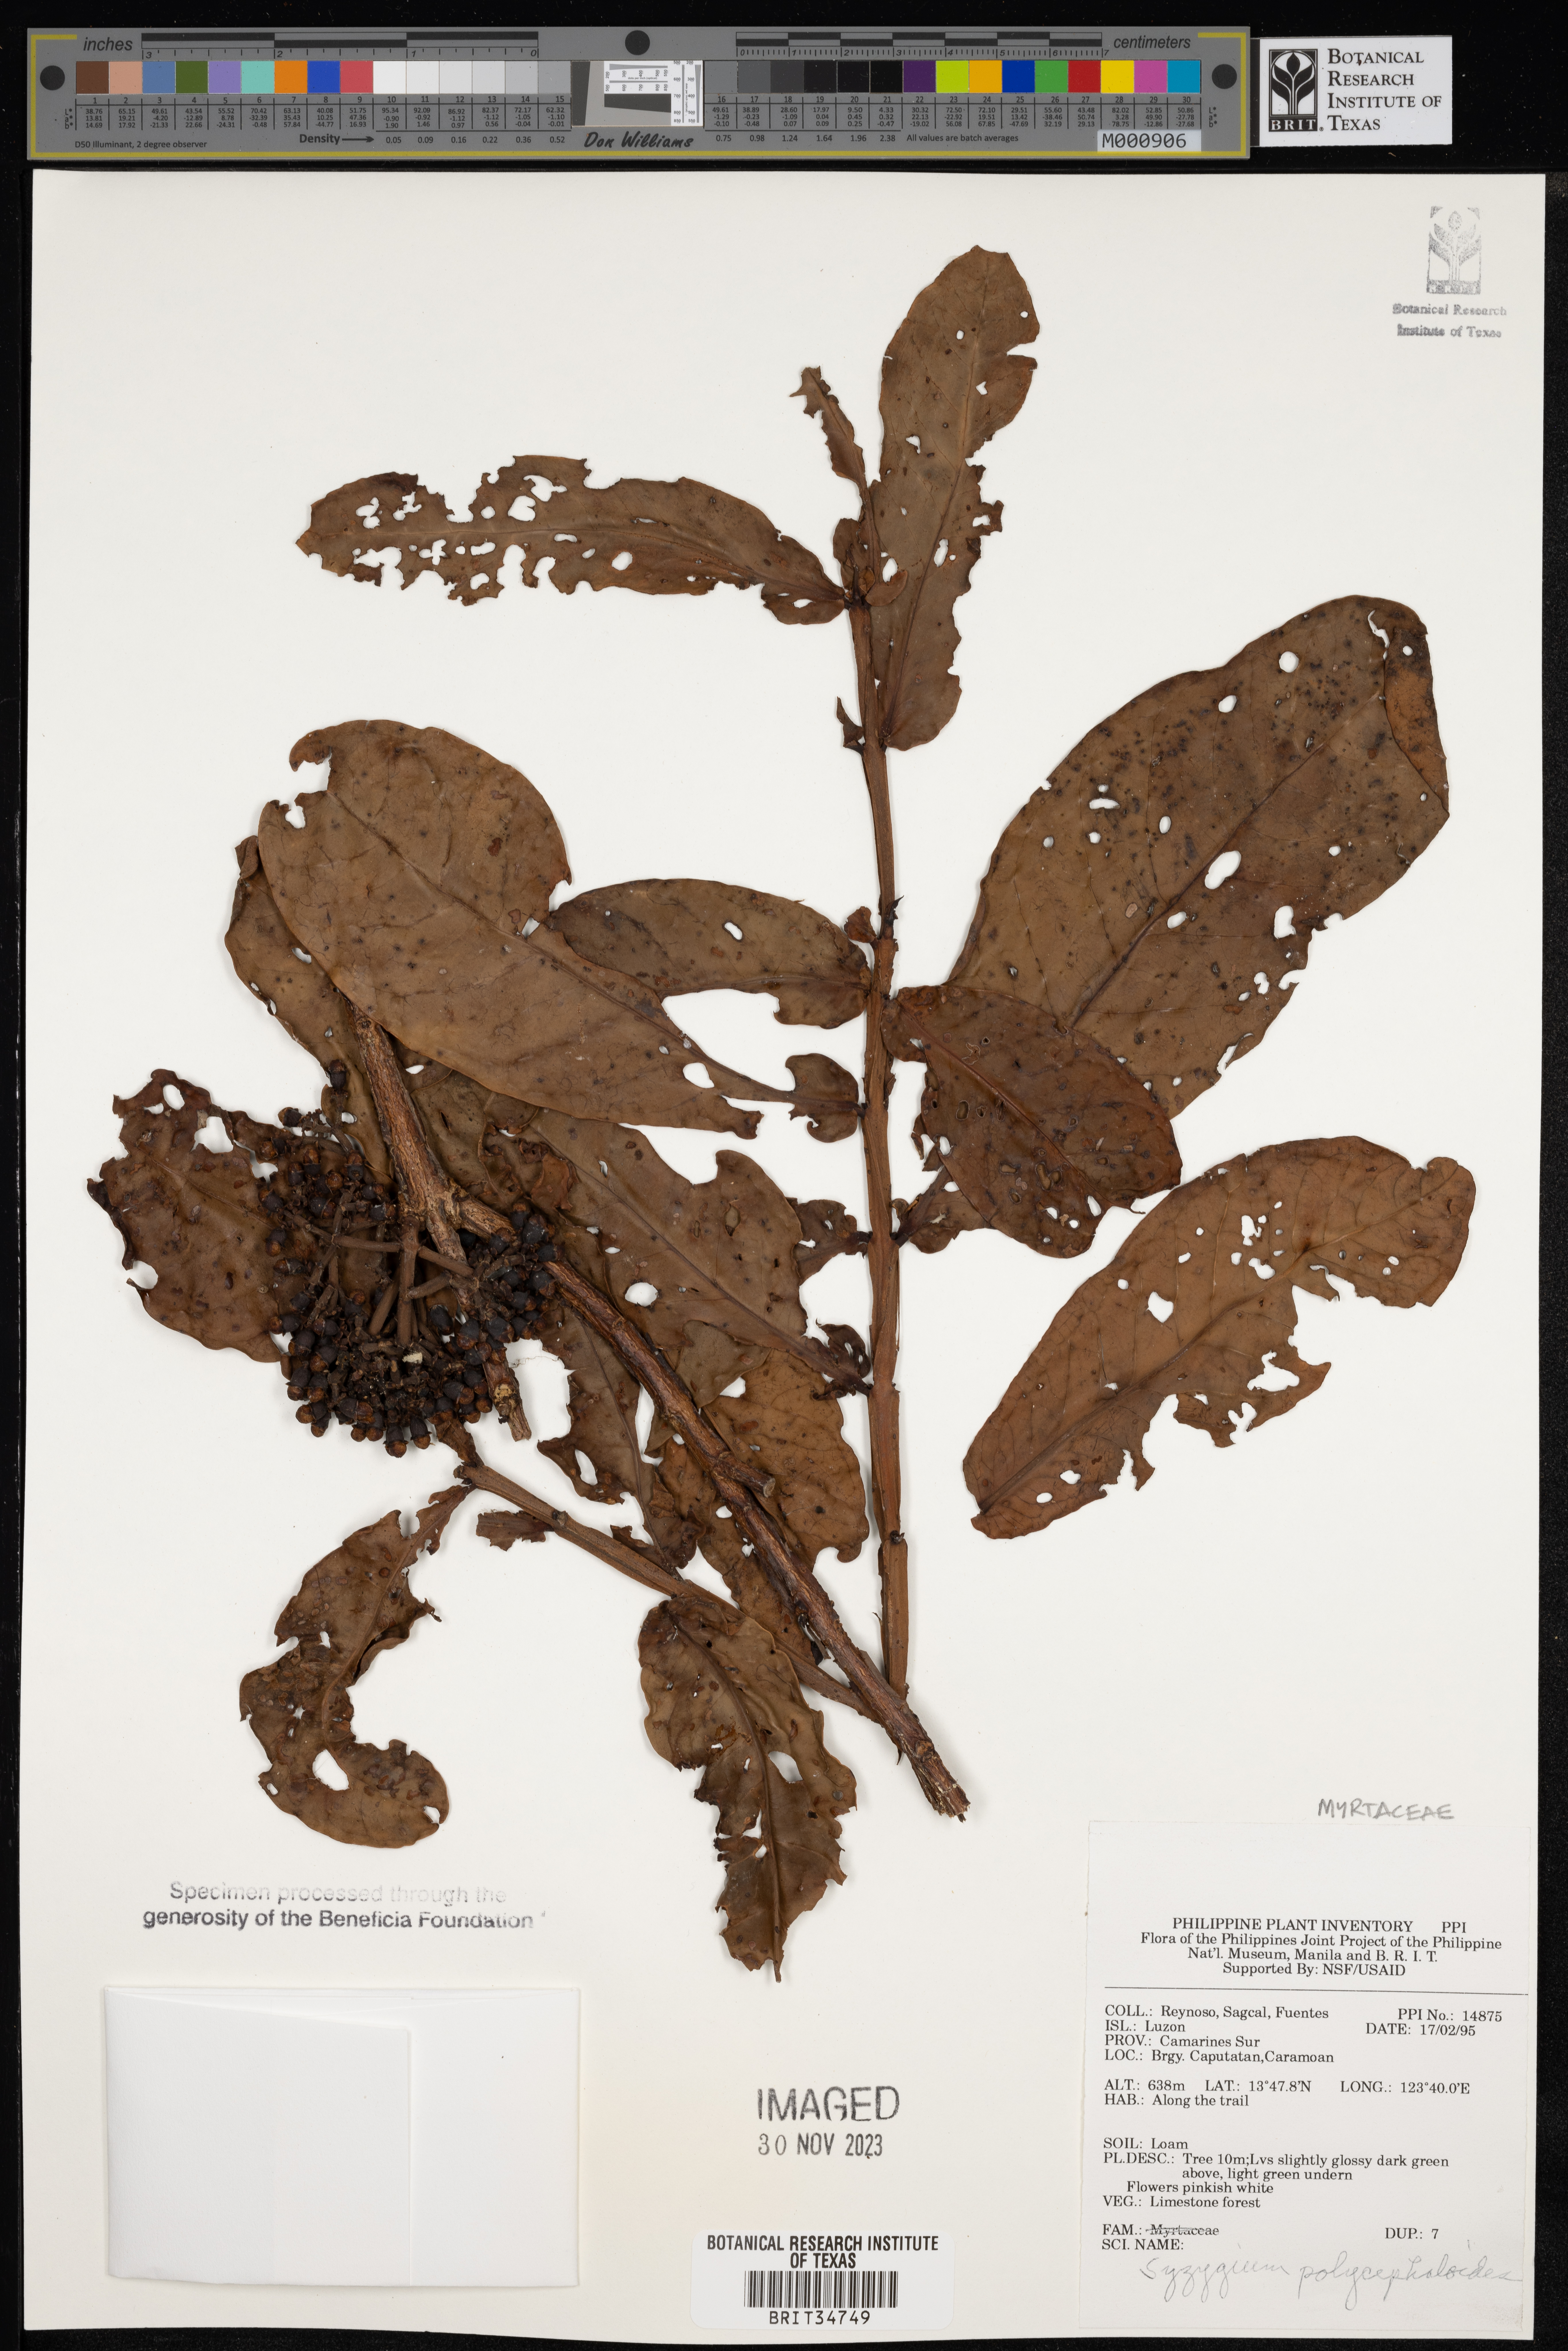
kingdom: Plantae
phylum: Tracheophyta
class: Magnoliopsida
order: Myrtales
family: Myrtaceae
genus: Syzygium
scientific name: Syzygium polycephaloides
